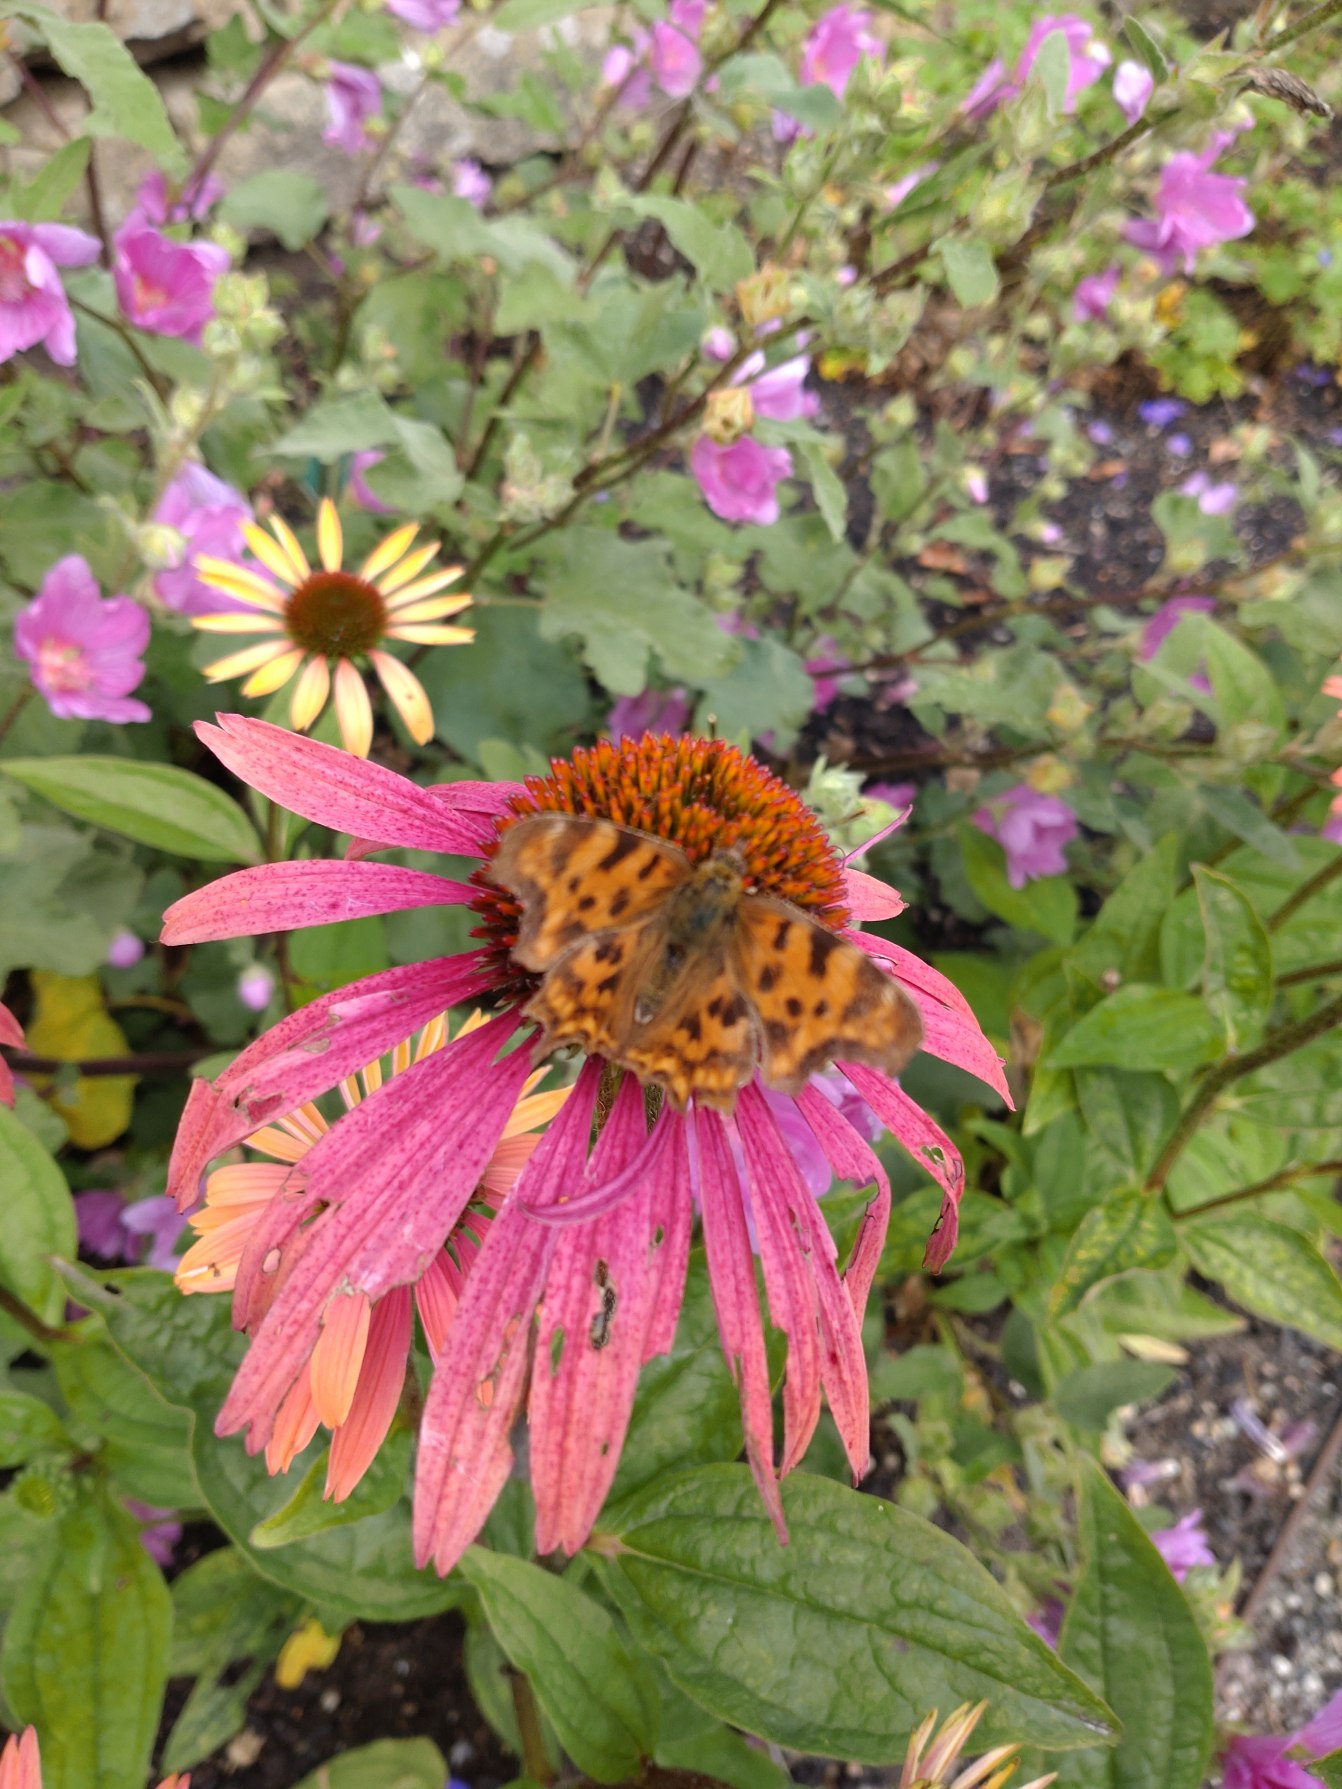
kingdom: Animalia
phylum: Arthropoda
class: Insecta
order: Lepidoptera
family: Nymphalidae
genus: Polygonia
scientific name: Polygonia c-album
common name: Det hvide C
